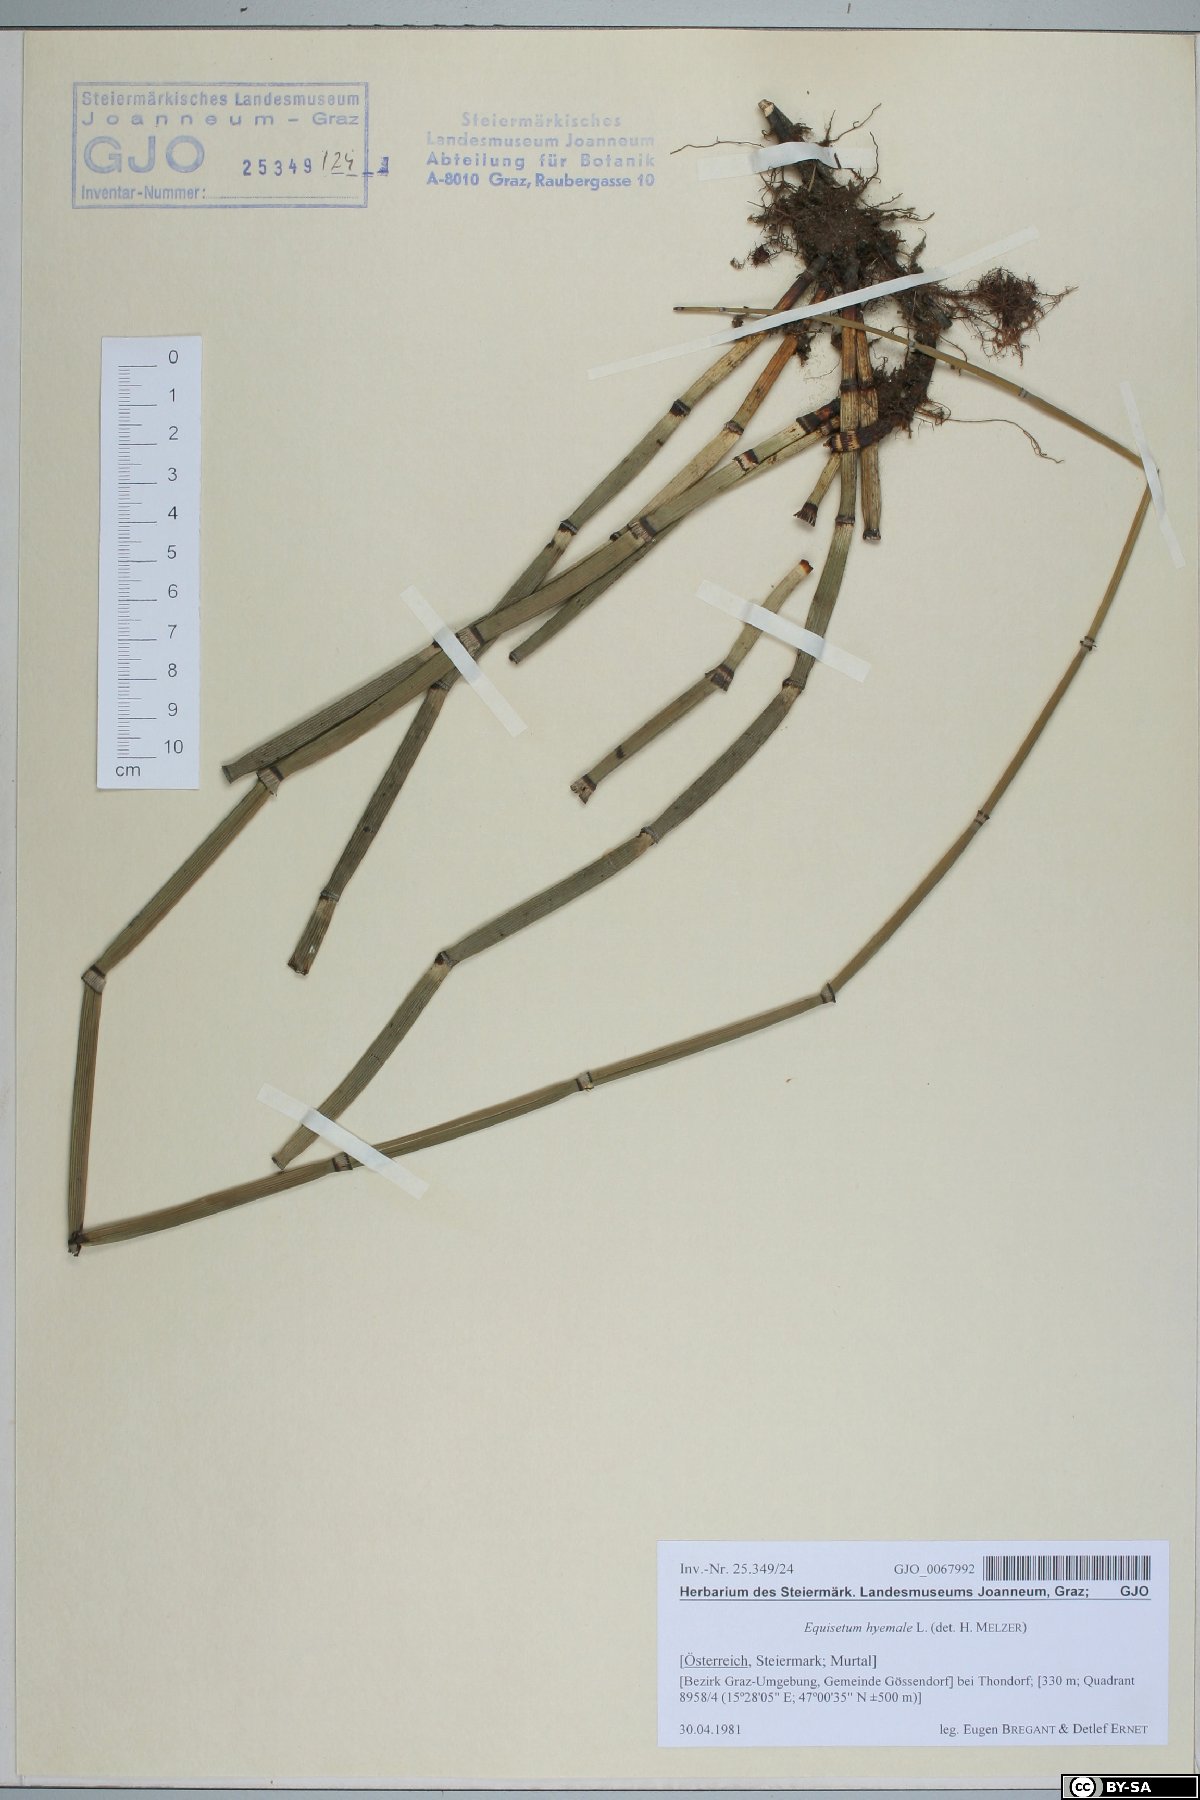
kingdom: Plantae
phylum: Tracheophyta
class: Polypodiopsida
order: Equisetales
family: Equisetaceae
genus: Equisetum
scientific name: Equisetum hyemale
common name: Rough horsetail
